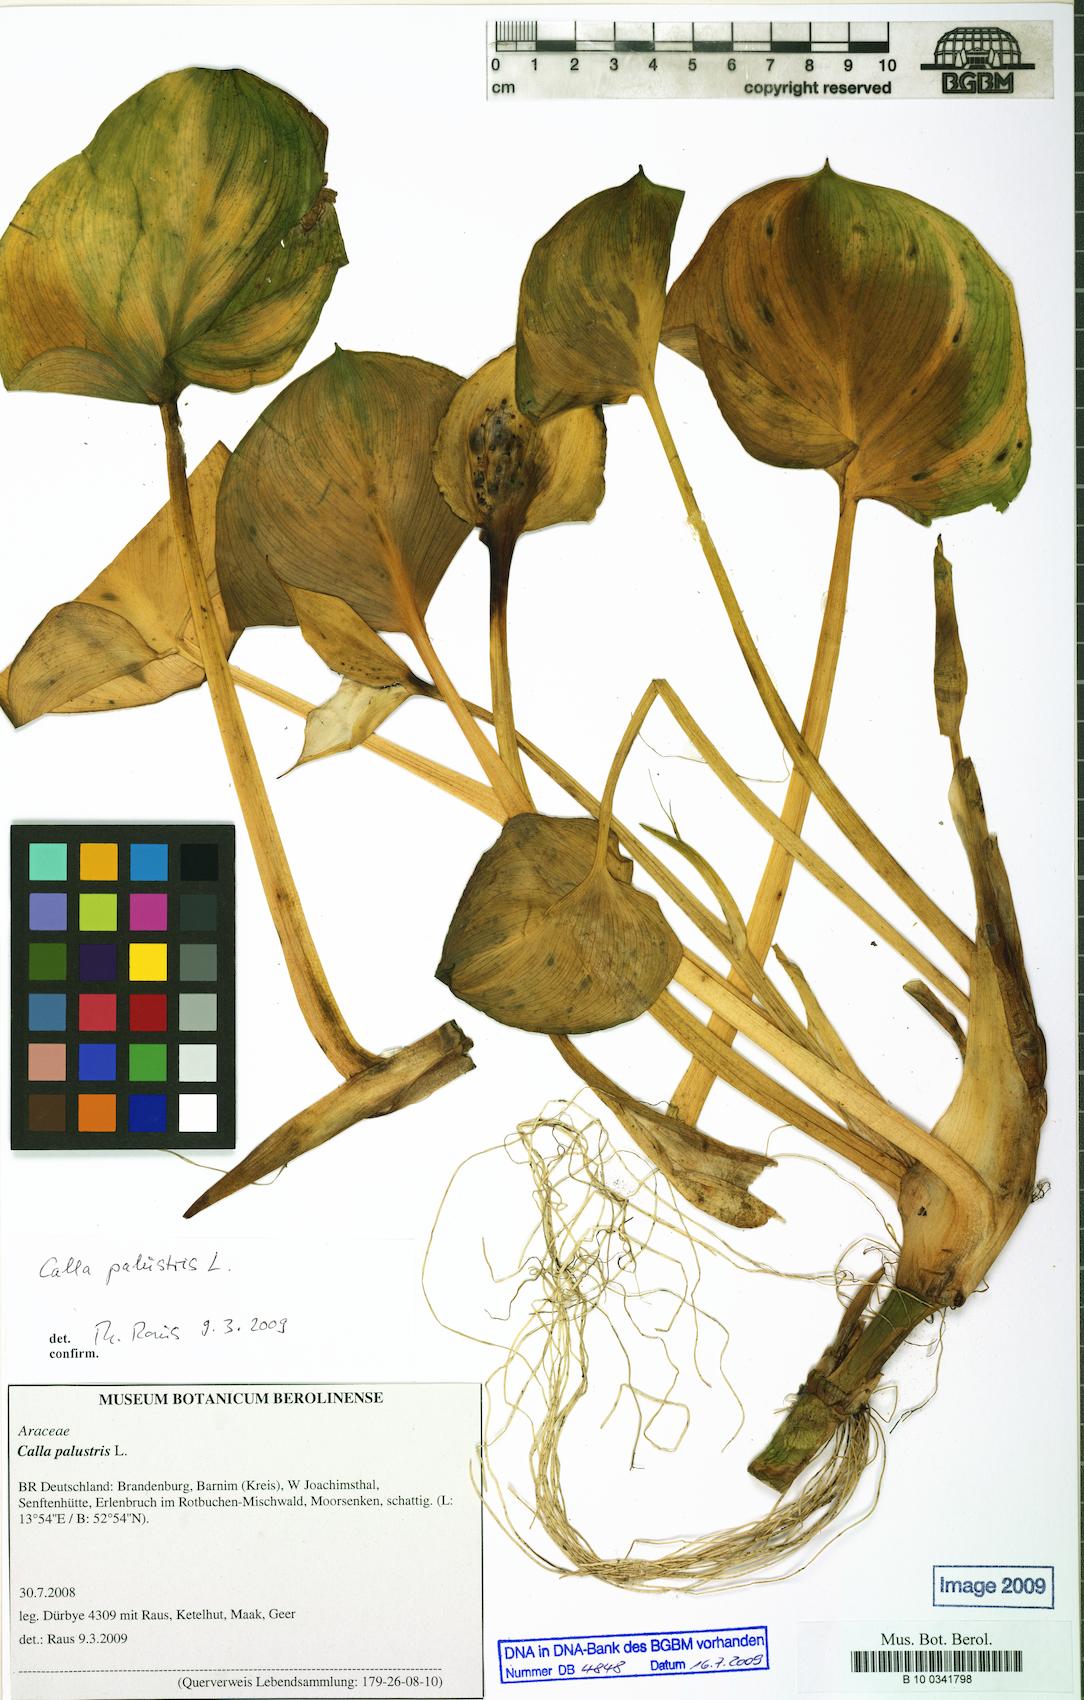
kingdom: Plantae
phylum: Tracheophyta
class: Liliopsida
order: Alismatales
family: Araceae
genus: Calla
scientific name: Calla palustris
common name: Bog arum
